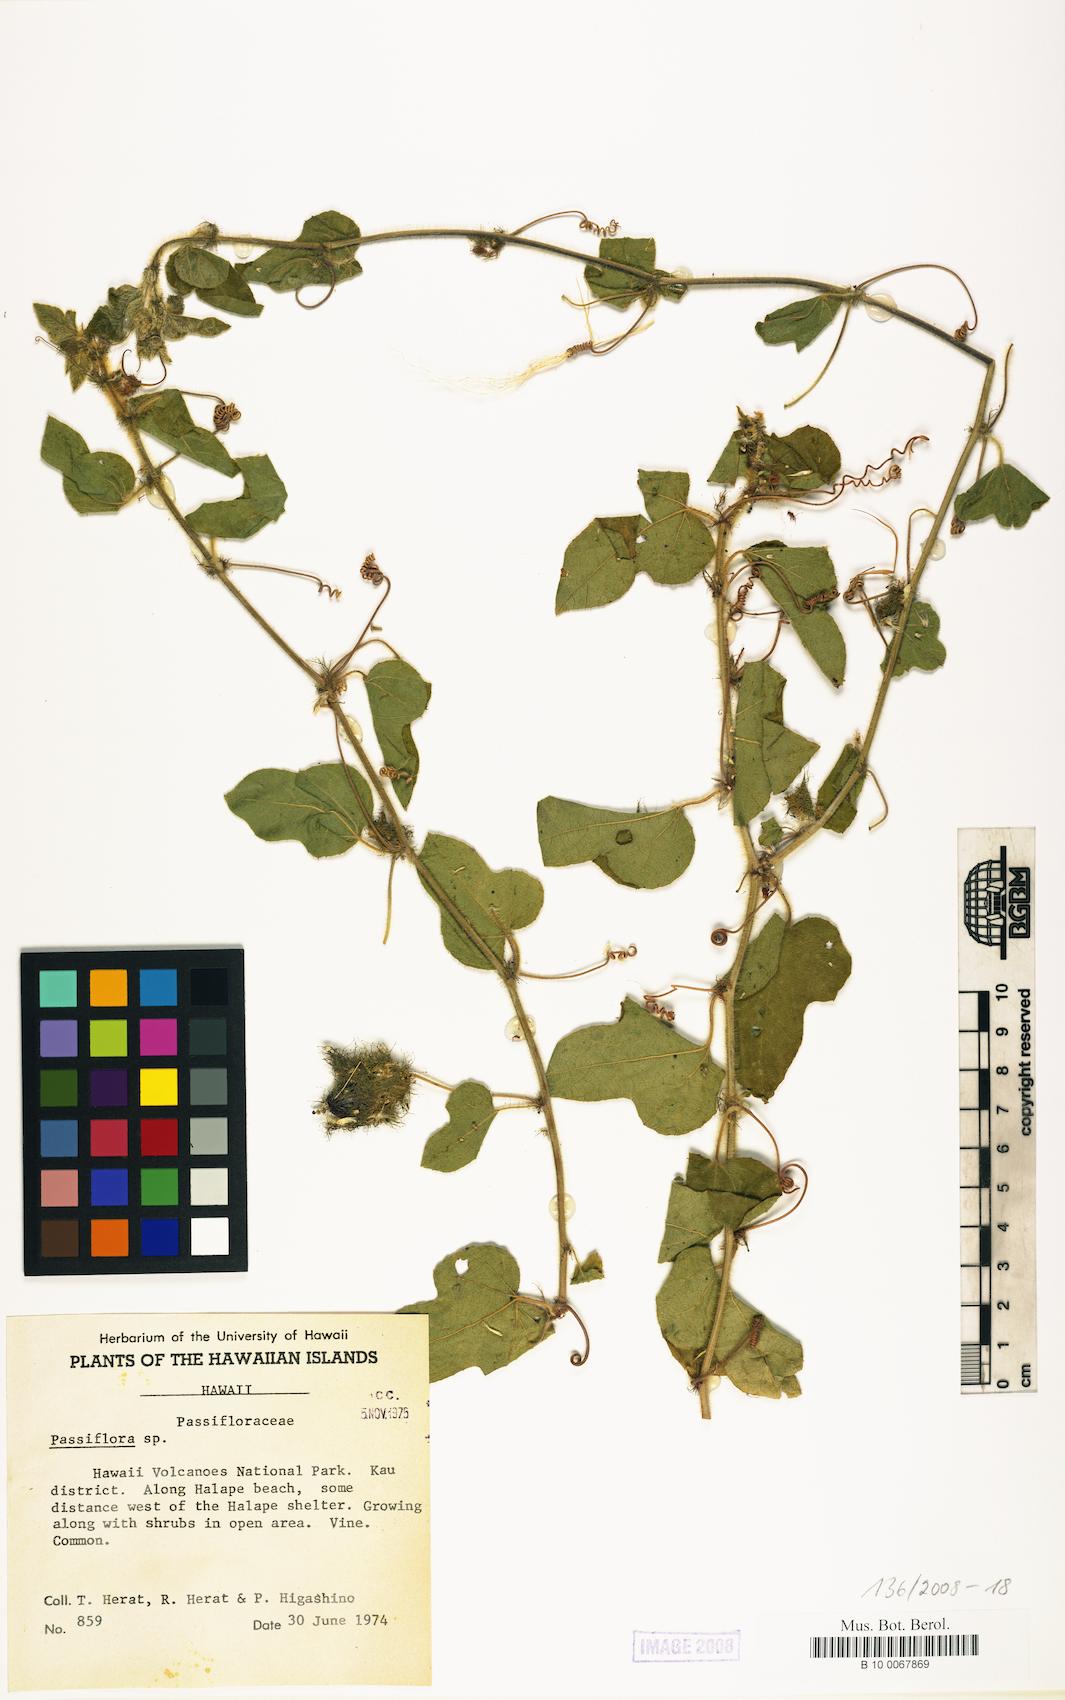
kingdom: Plantae
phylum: Tracheophyta
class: Magnoliopsida
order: Malpighiales
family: Passifloraceae
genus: Passiflora
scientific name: Passiflora foetida
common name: Fetid passionflower
